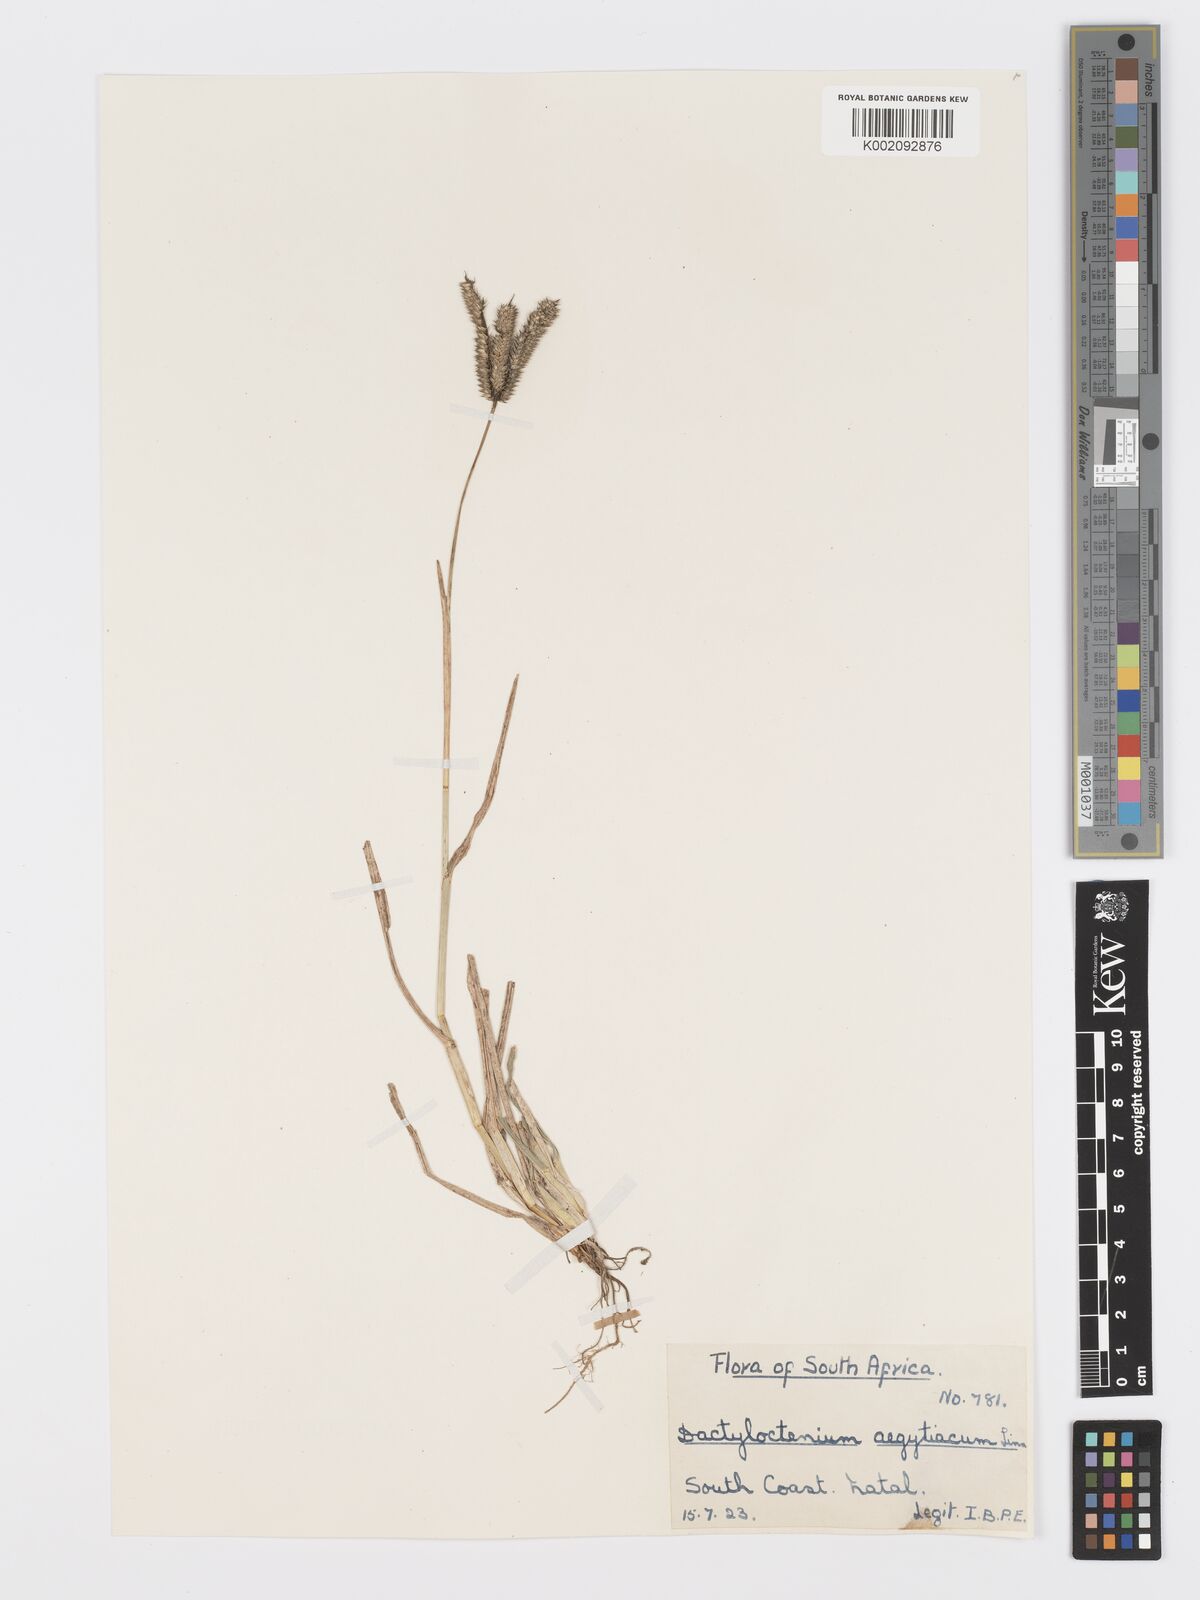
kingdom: Plantae
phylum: Tracheophyta
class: Liliopsida
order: Poales
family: Poaceae
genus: Dactyloctenium
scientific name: Dactyloctenium aegyptium
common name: Egyptian grass
